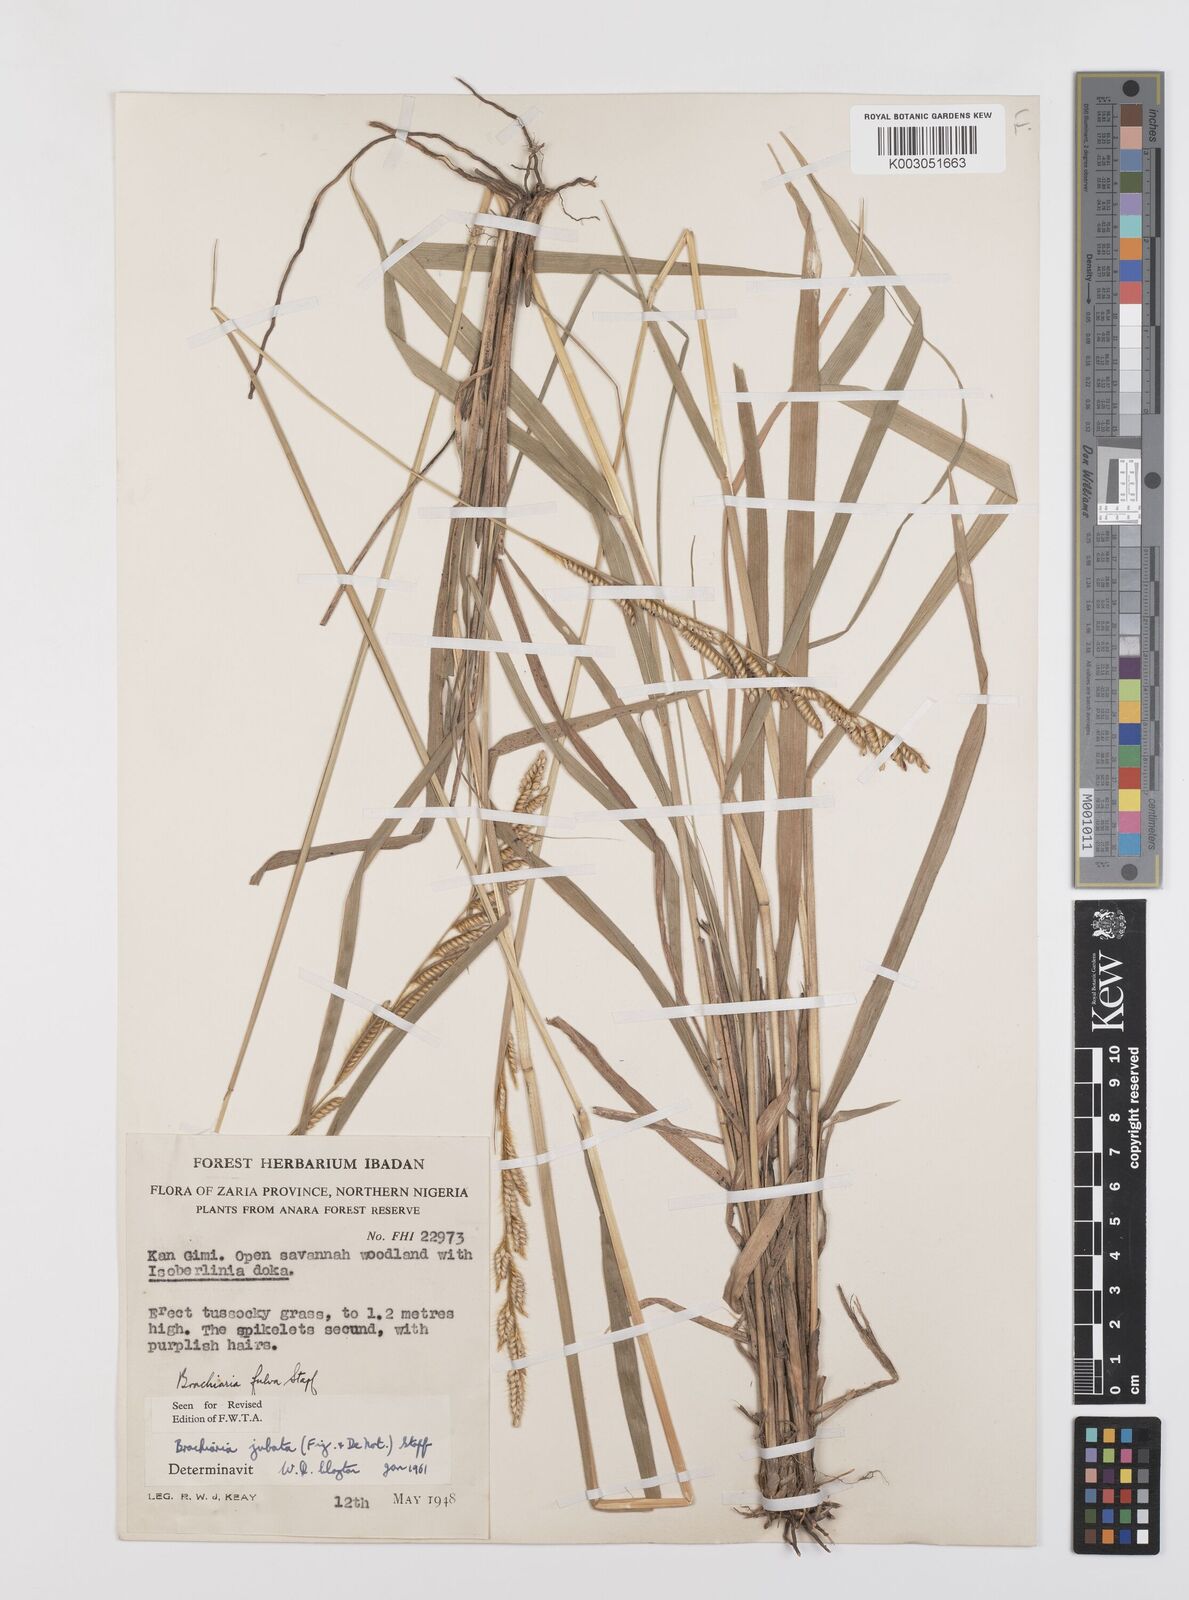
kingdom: Plantae
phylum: Tracheophyta
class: Liliopsida
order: Poales
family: Poaceae
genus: Urochloa
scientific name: Urochloa jubata
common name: Buffalograss
